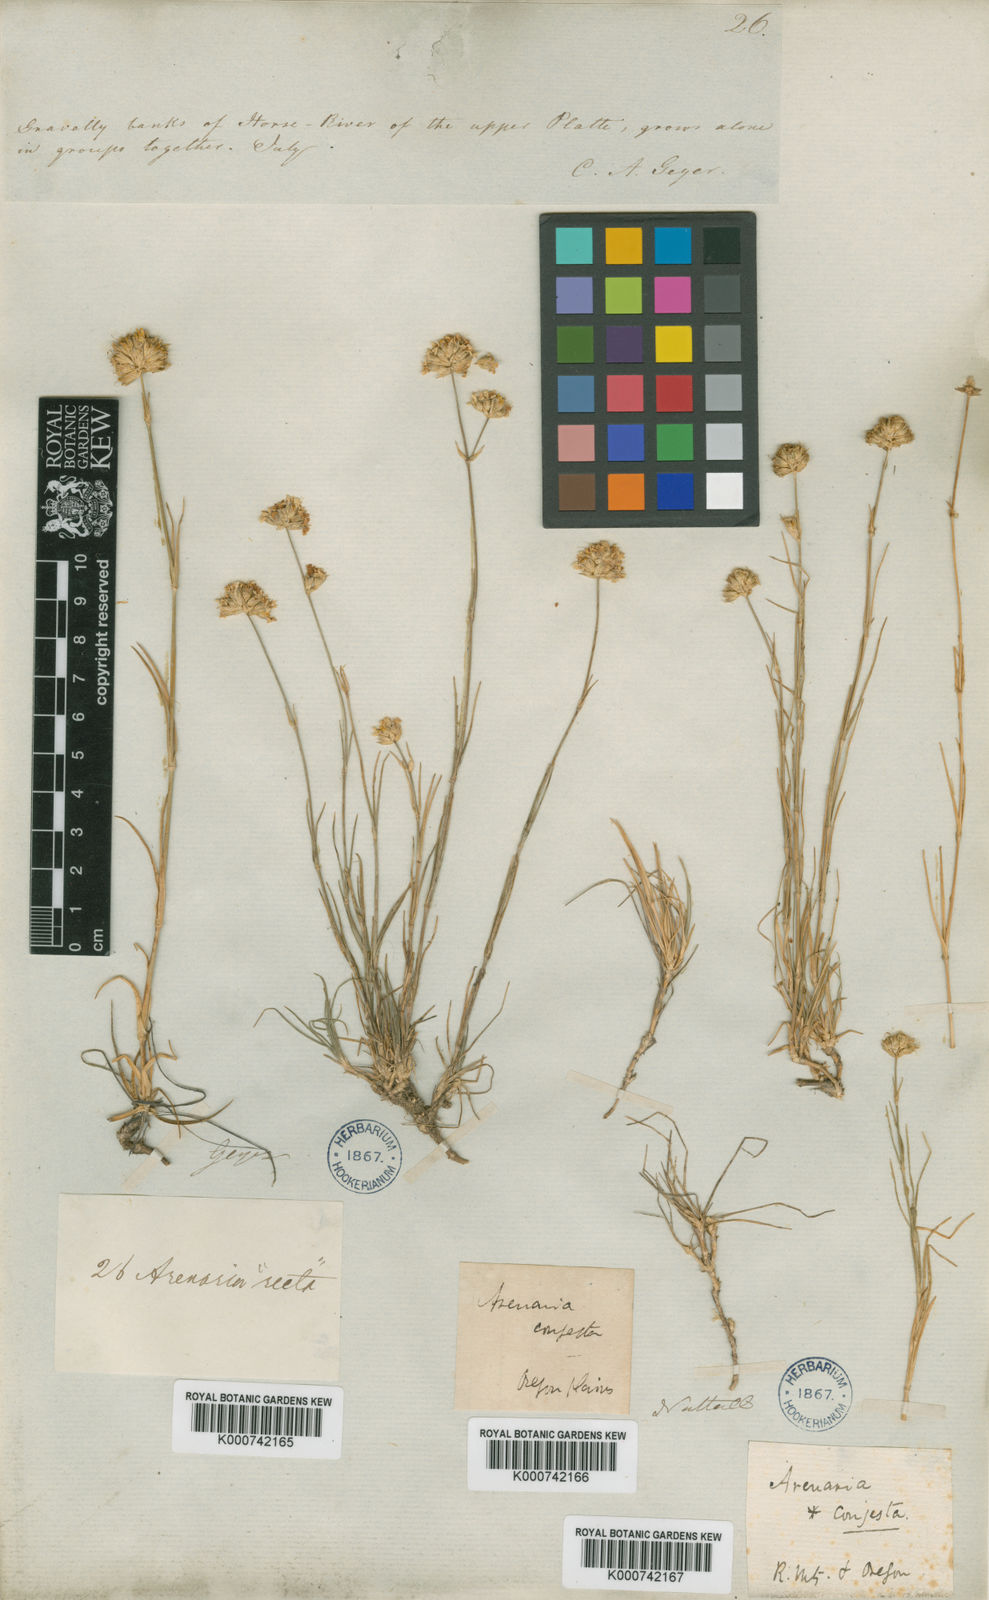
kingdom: Plantae
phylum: Tracheophyta
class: Magnoliopsida
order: Caryophyllales
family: Caryophyllaceae
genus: Eremogone
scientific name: Eremogone congesta
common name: Ballhead sandwort
